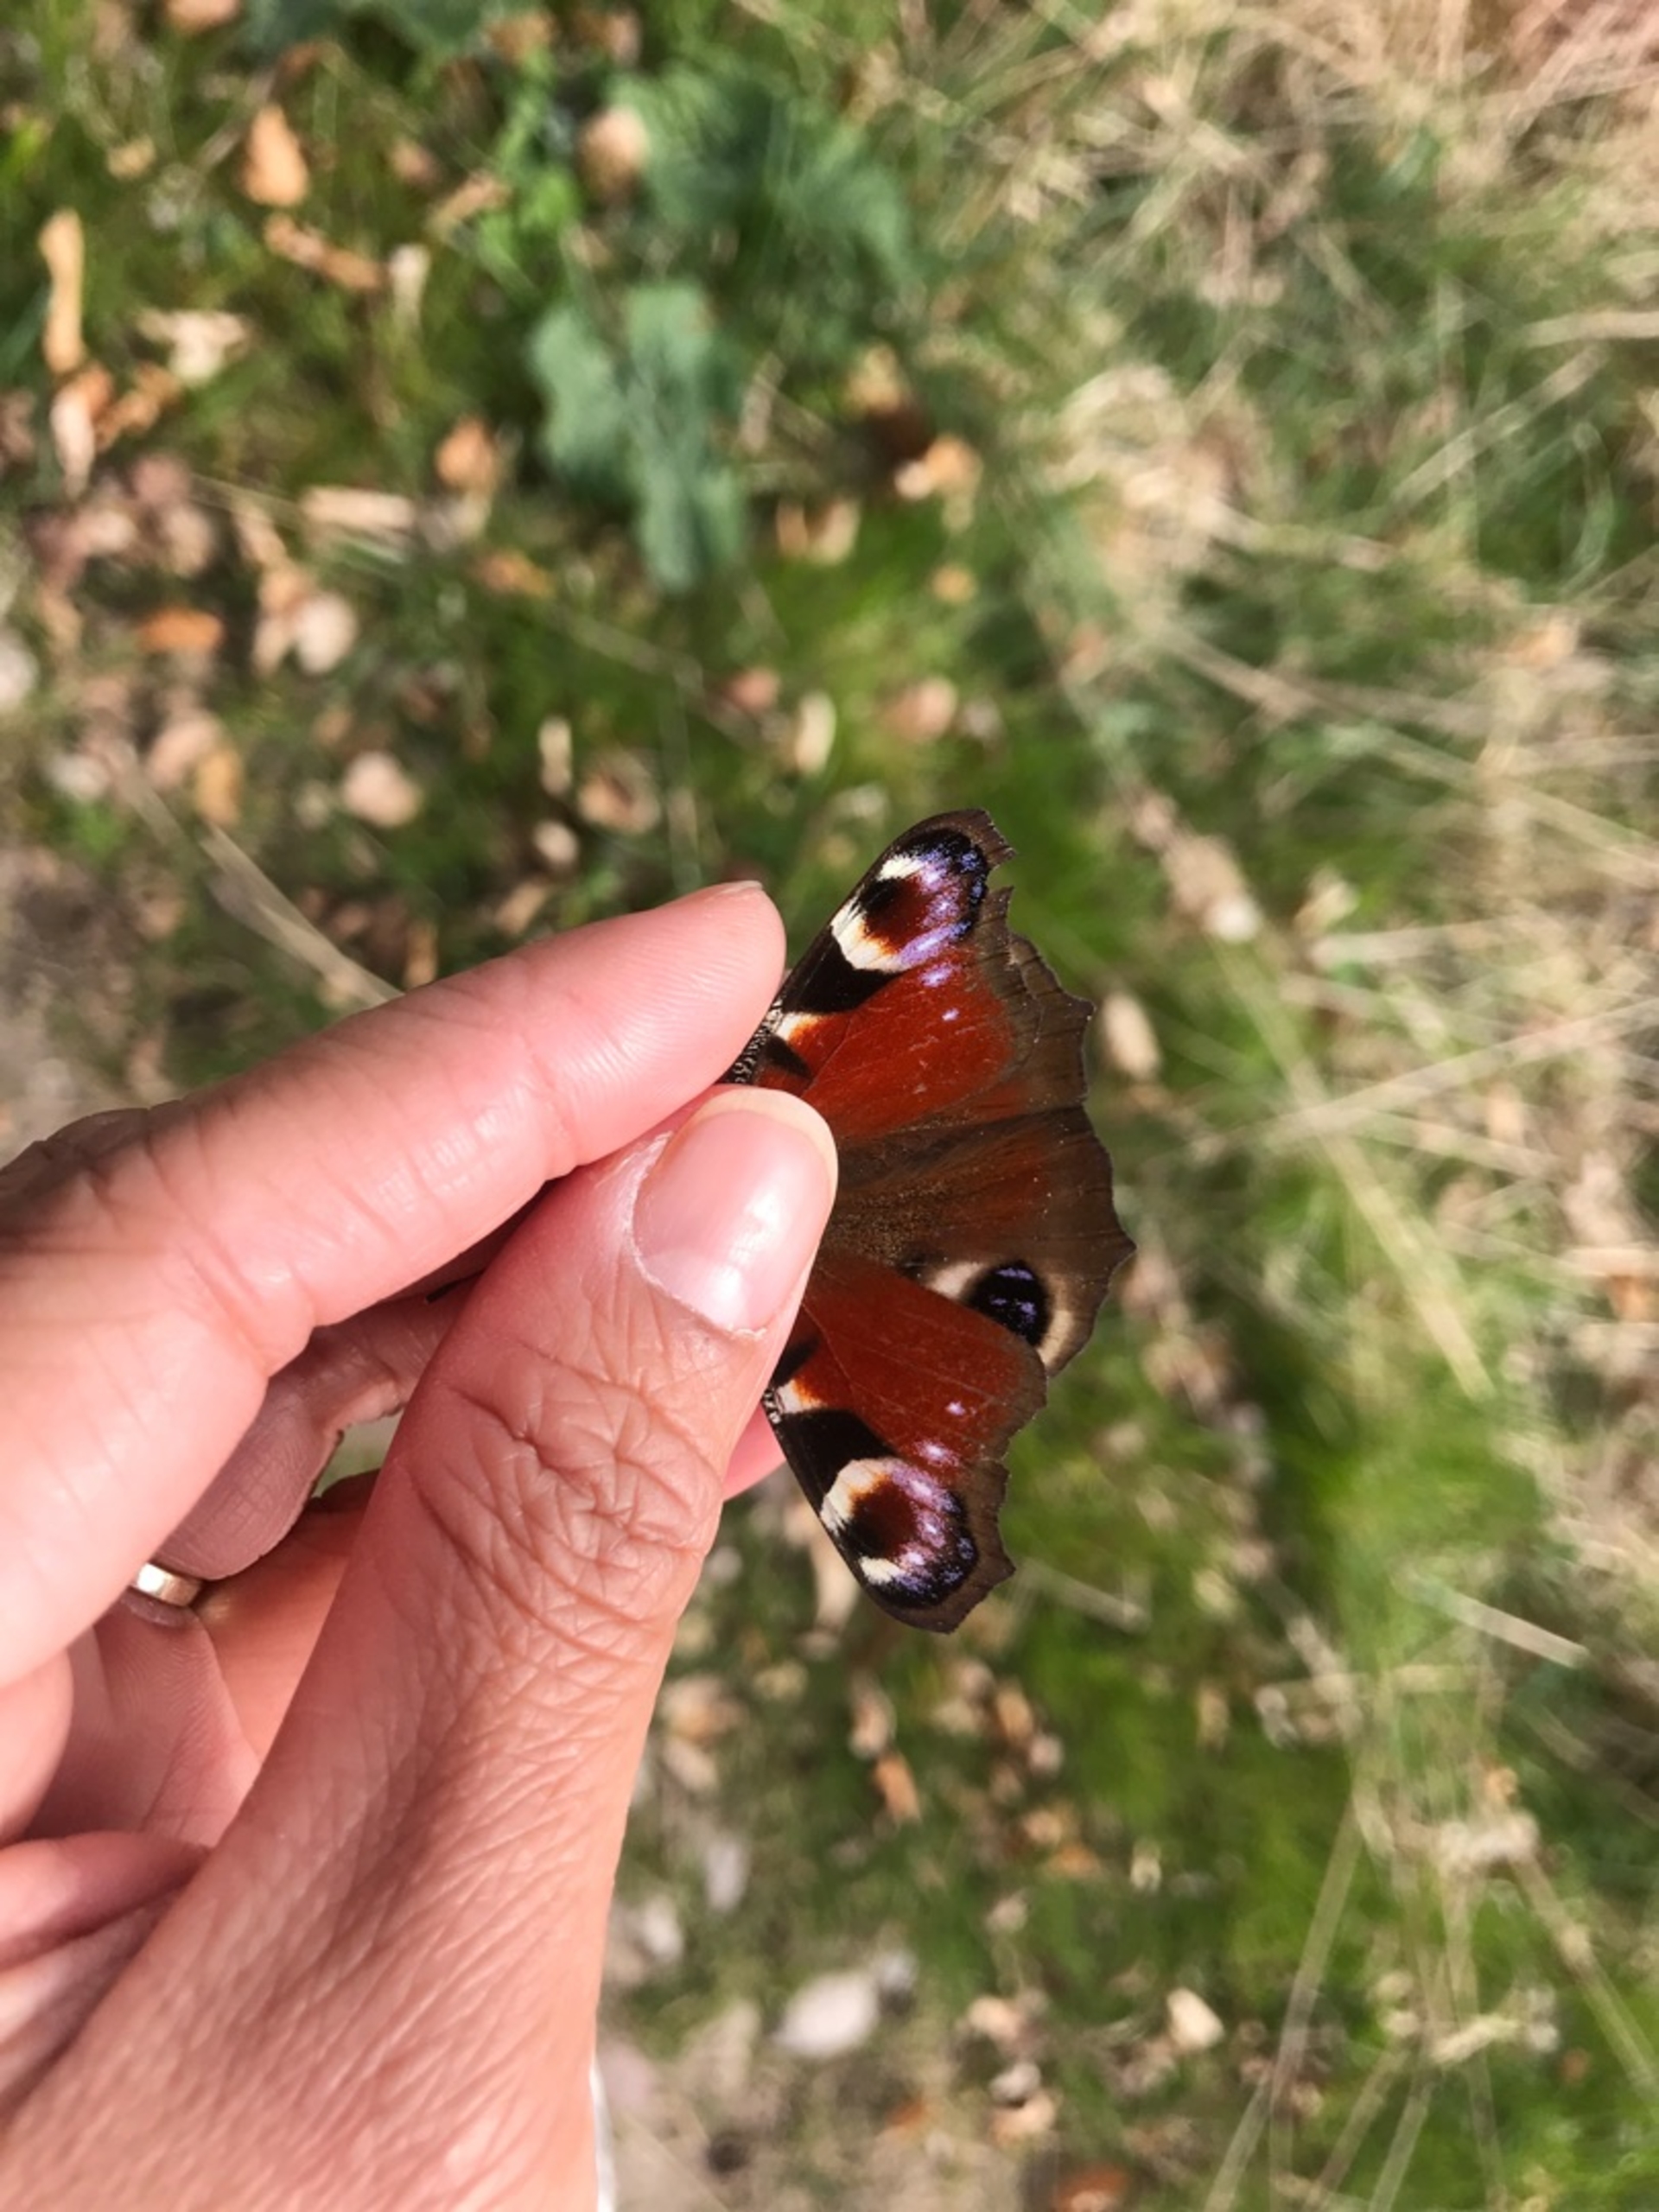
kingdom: Animalia
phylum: Arthropoda
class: Insecta
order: Lepidoptera
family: Nymphalidae
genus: Aglais
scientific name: Aglais io
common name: Dagpåfugleøje
